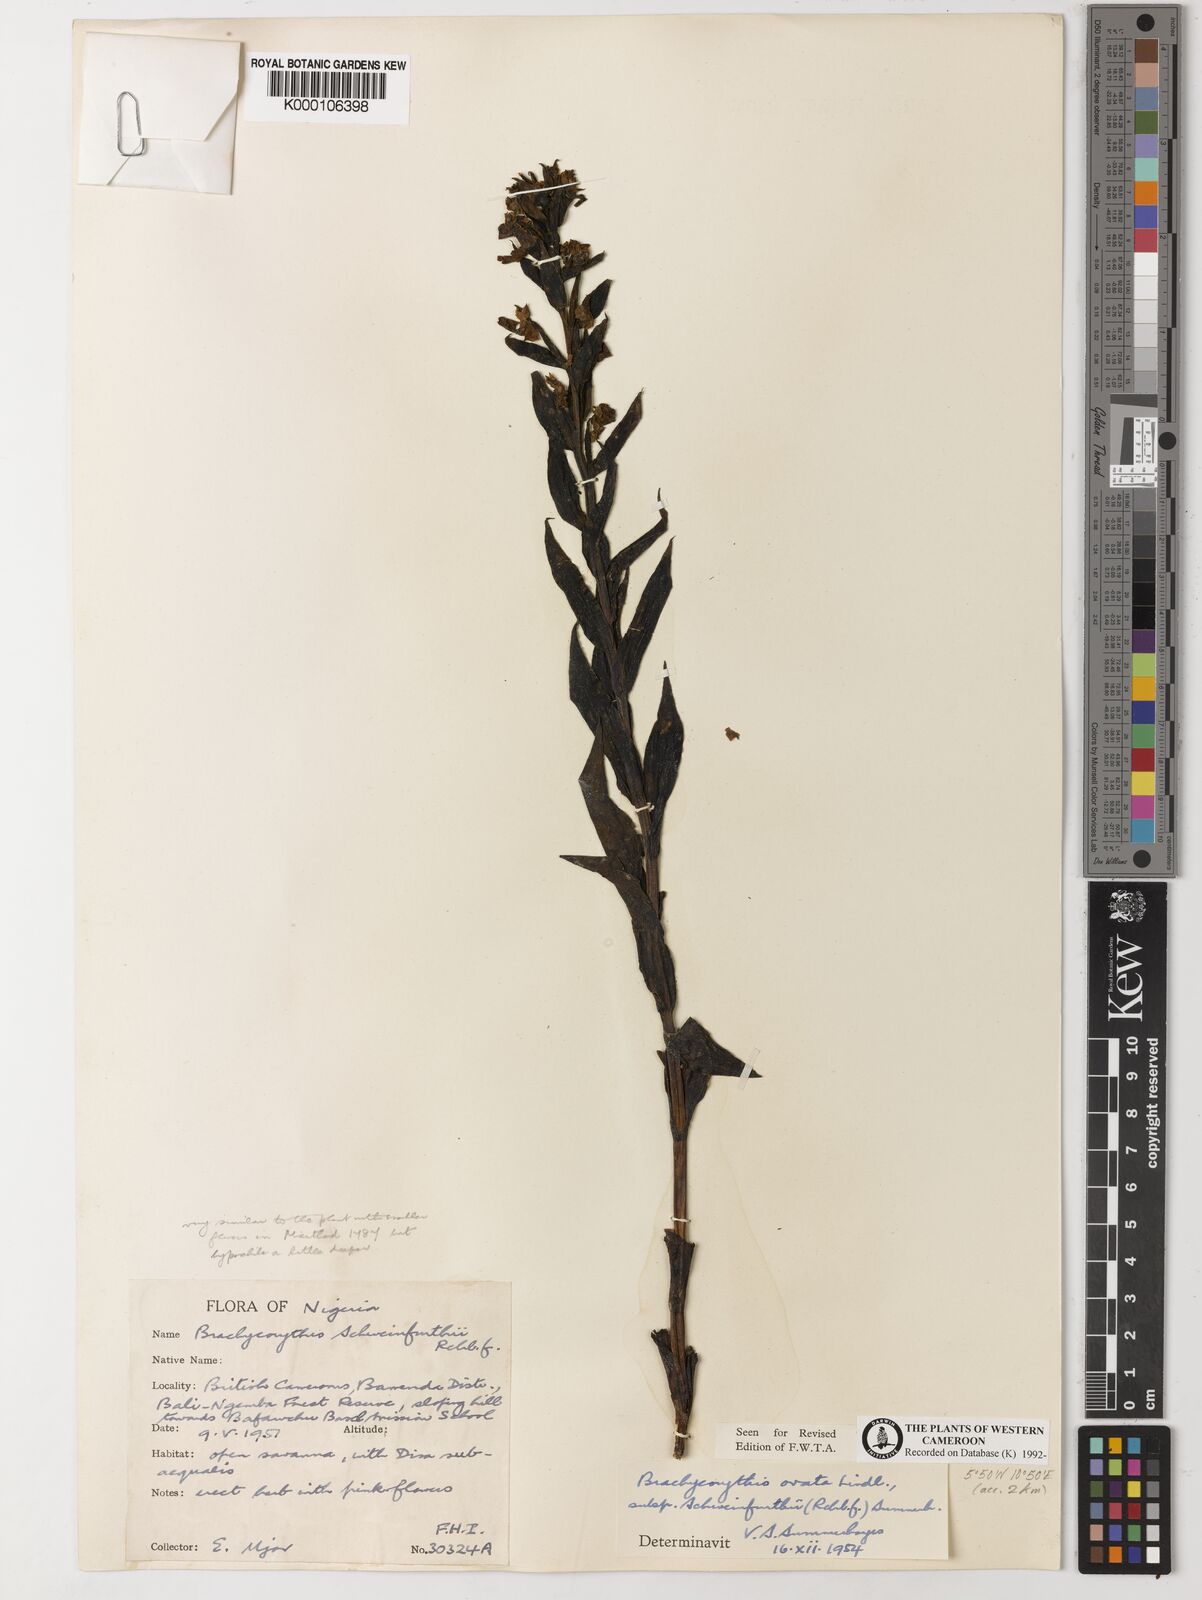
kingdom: Plantae
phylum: Tracheophyta
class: Liliopsida
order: Asparagales
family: Orchidaceae
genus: Brachycorythis
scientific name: Brachycorythis ovata
